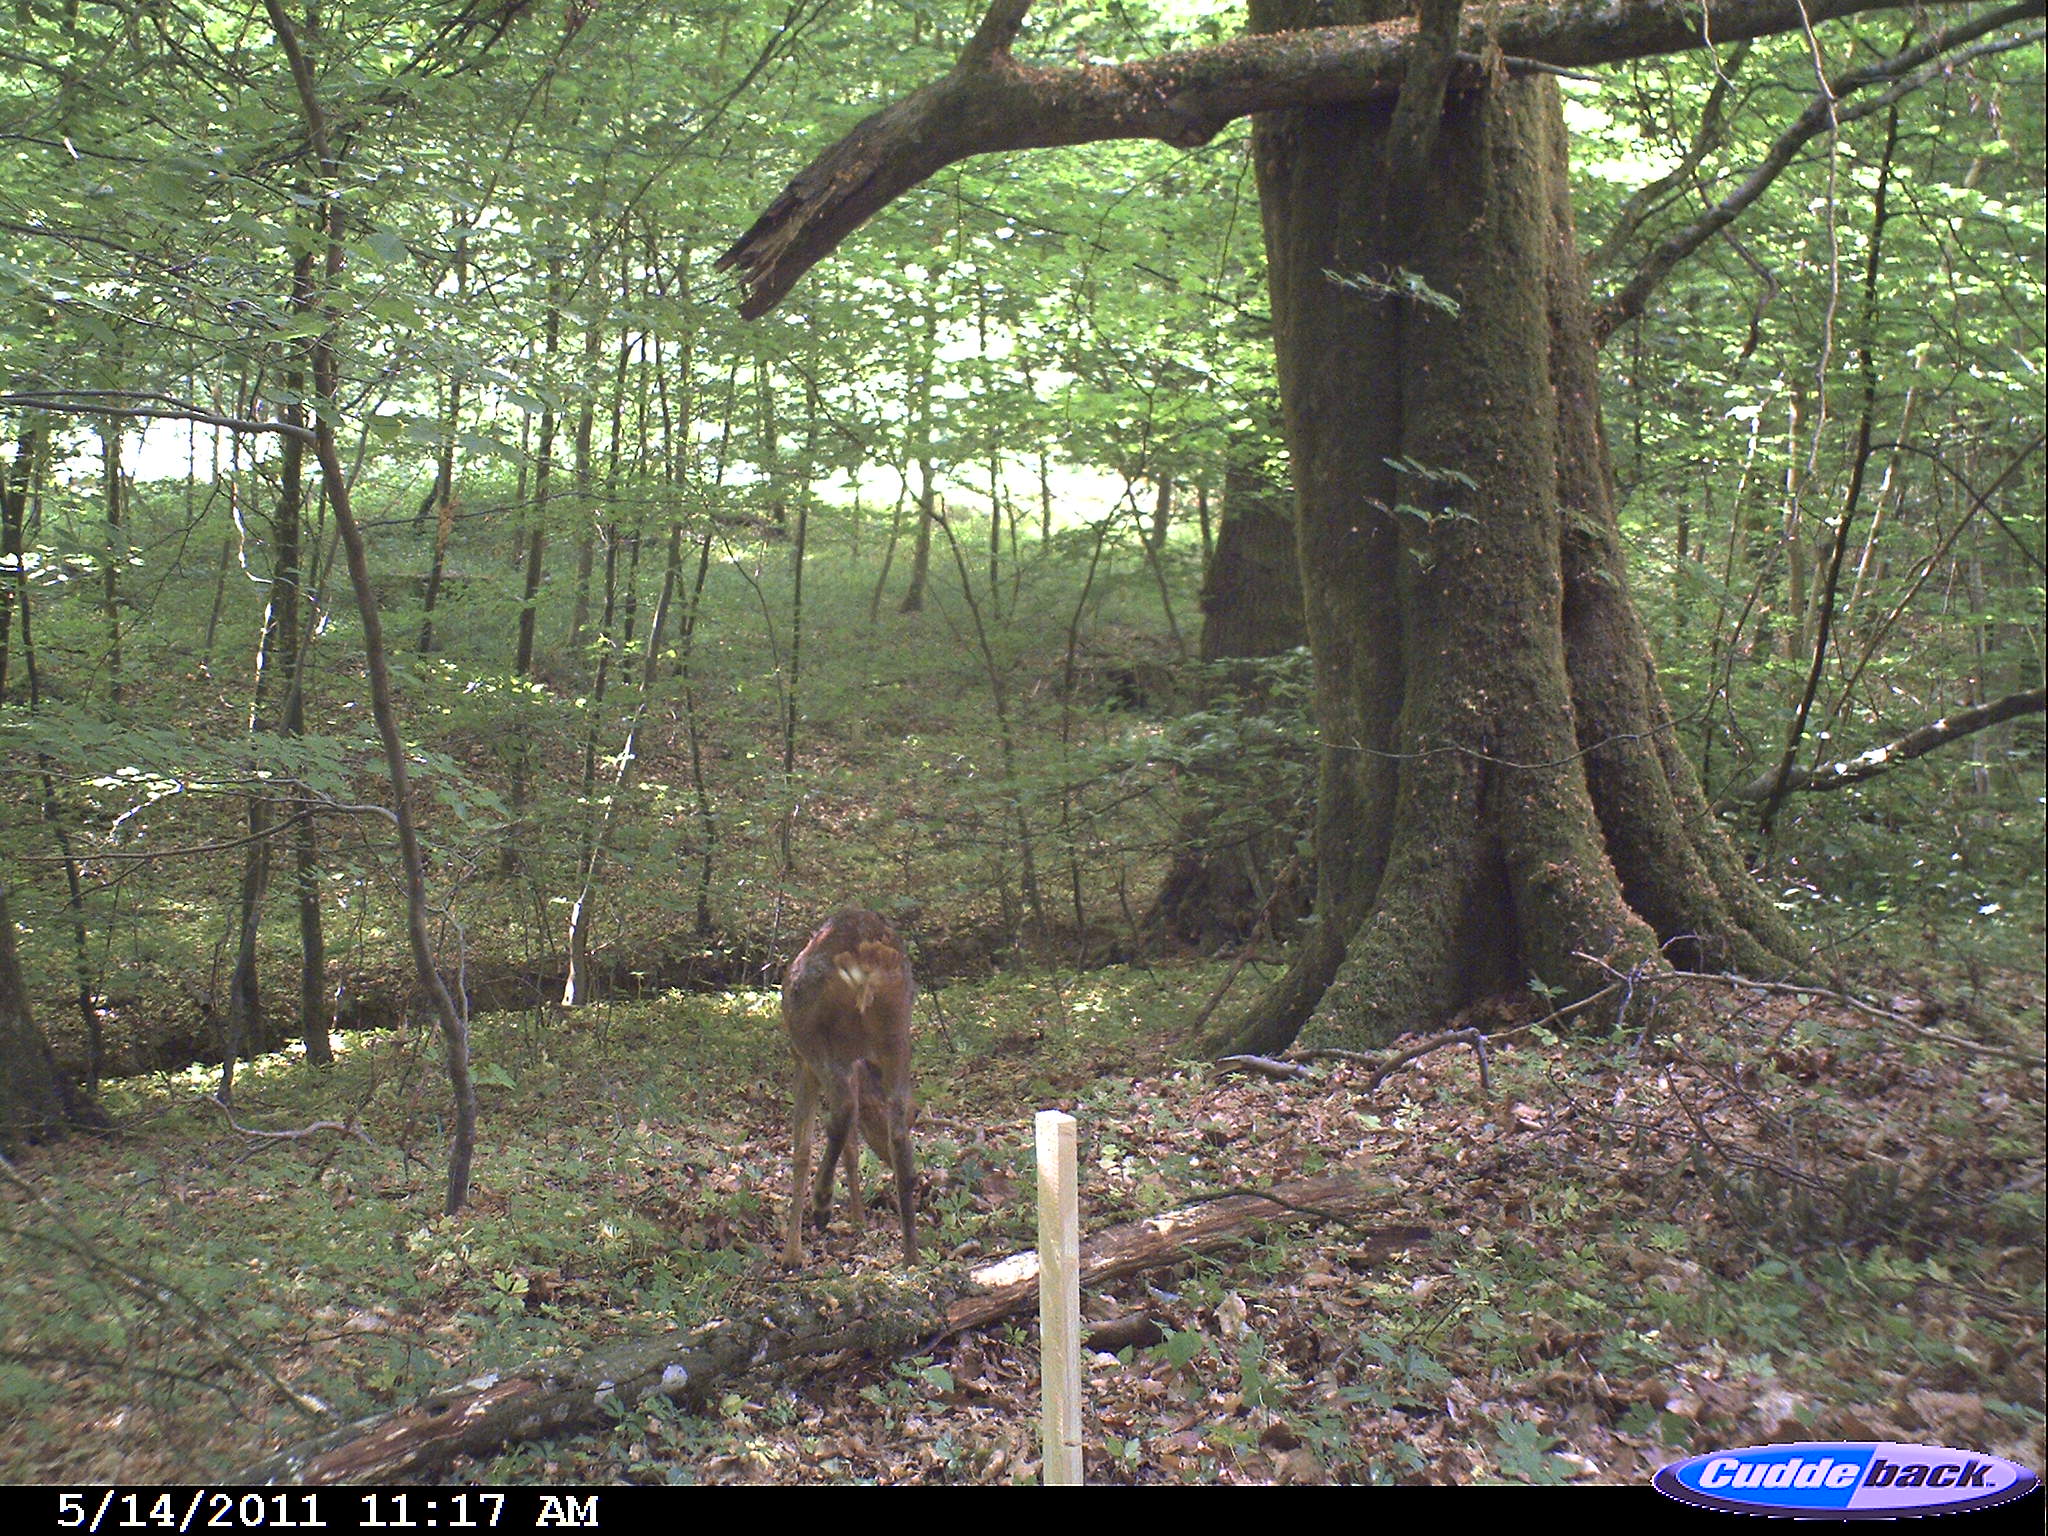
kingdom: Animalia
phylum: Chordata
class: Mammalia
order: Artiodactyla
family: Cervidae
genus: Capreolus
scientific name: Capreolus capreolus
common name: Western roe deer
